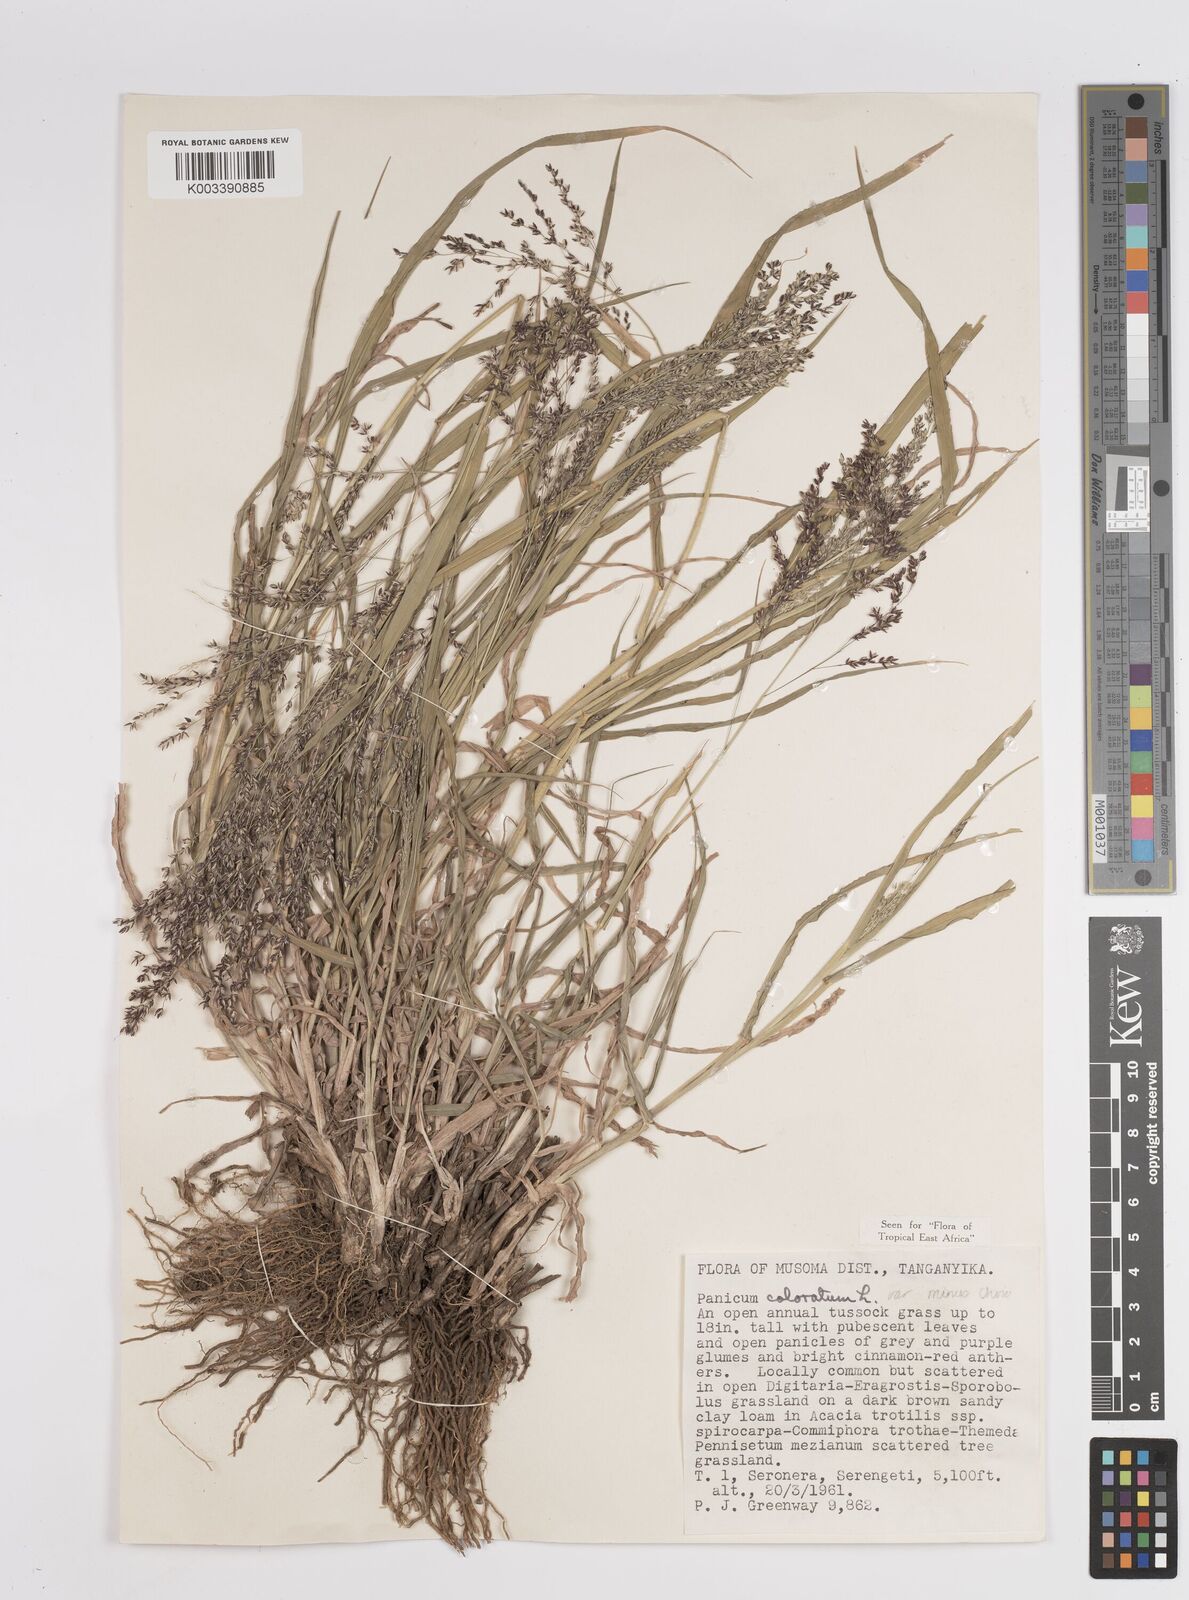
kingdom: Plantae
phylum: Tracheophyta
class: Liliopsida
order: Poales
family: Poaceae
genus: Panicum
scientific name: Panicum coloratum
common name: Kleingrass
